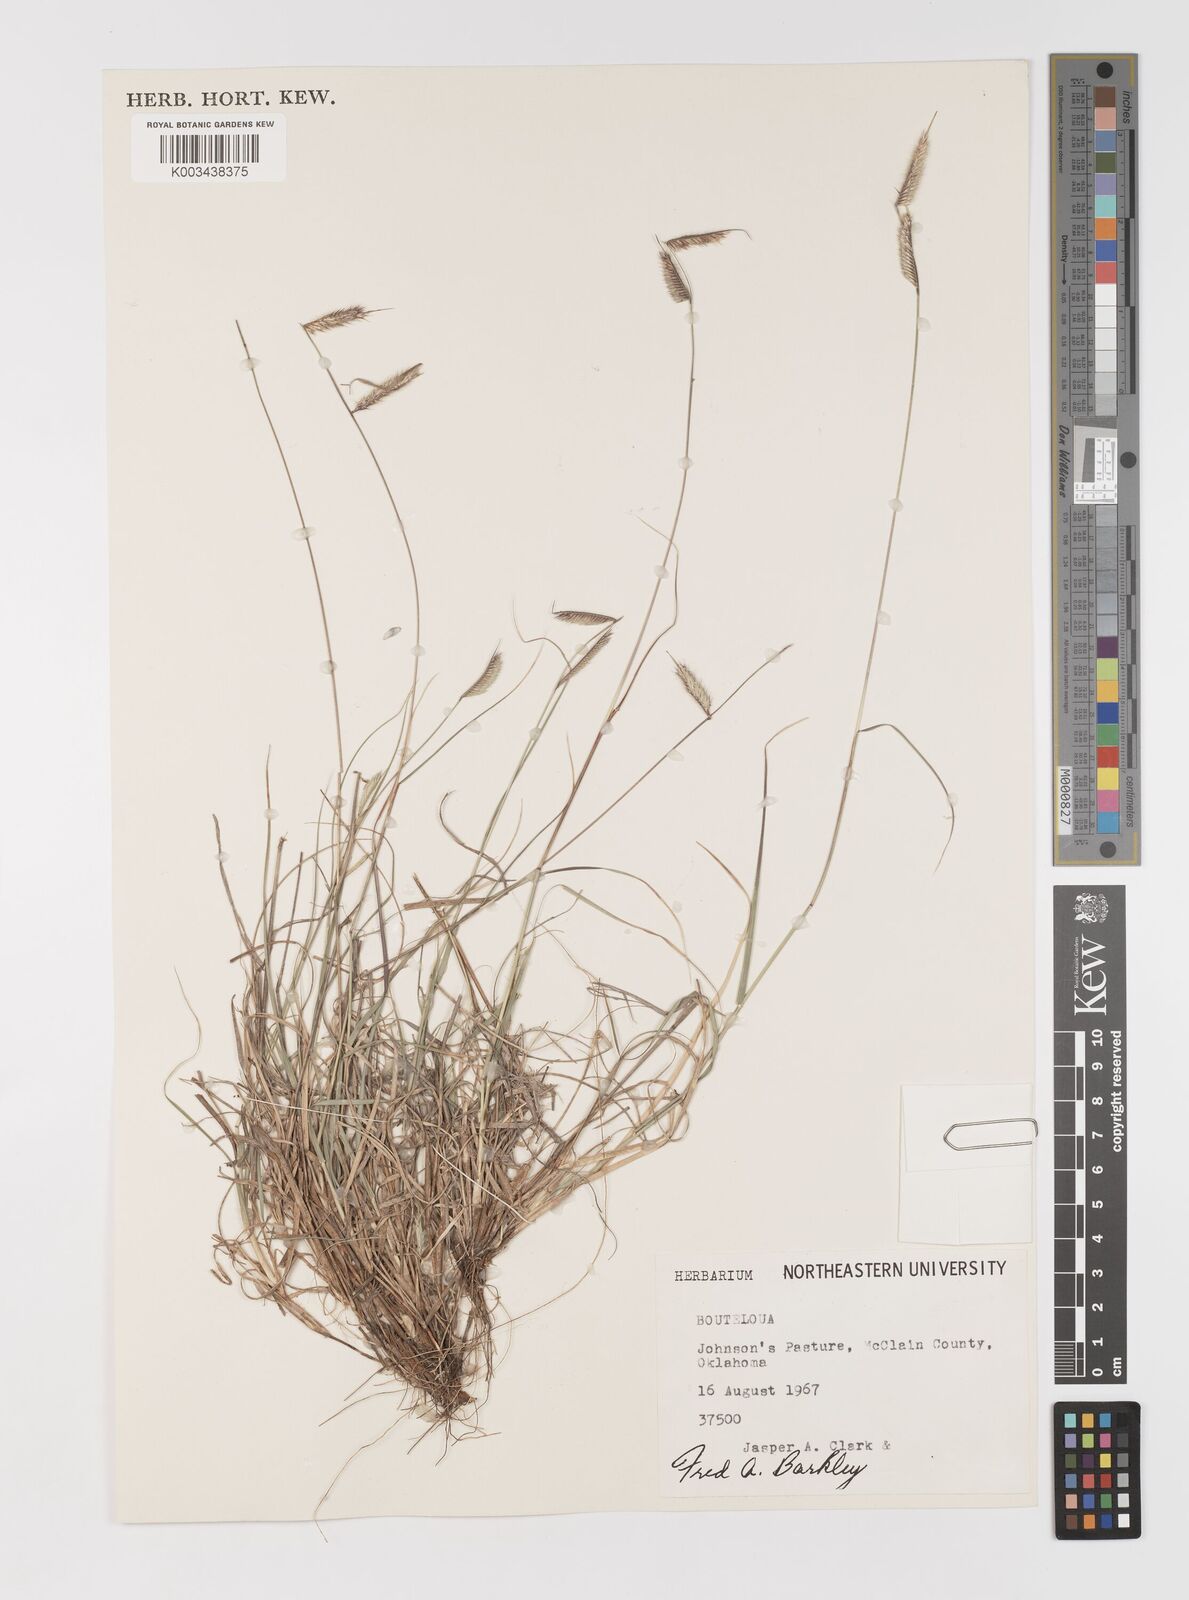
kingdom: Plantae
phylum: Tracheophyta
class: Liliopsida
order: Poales
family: Poaceae
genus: Bouteloua
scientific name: Bouteloua hirsuta
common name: Hairy grama
